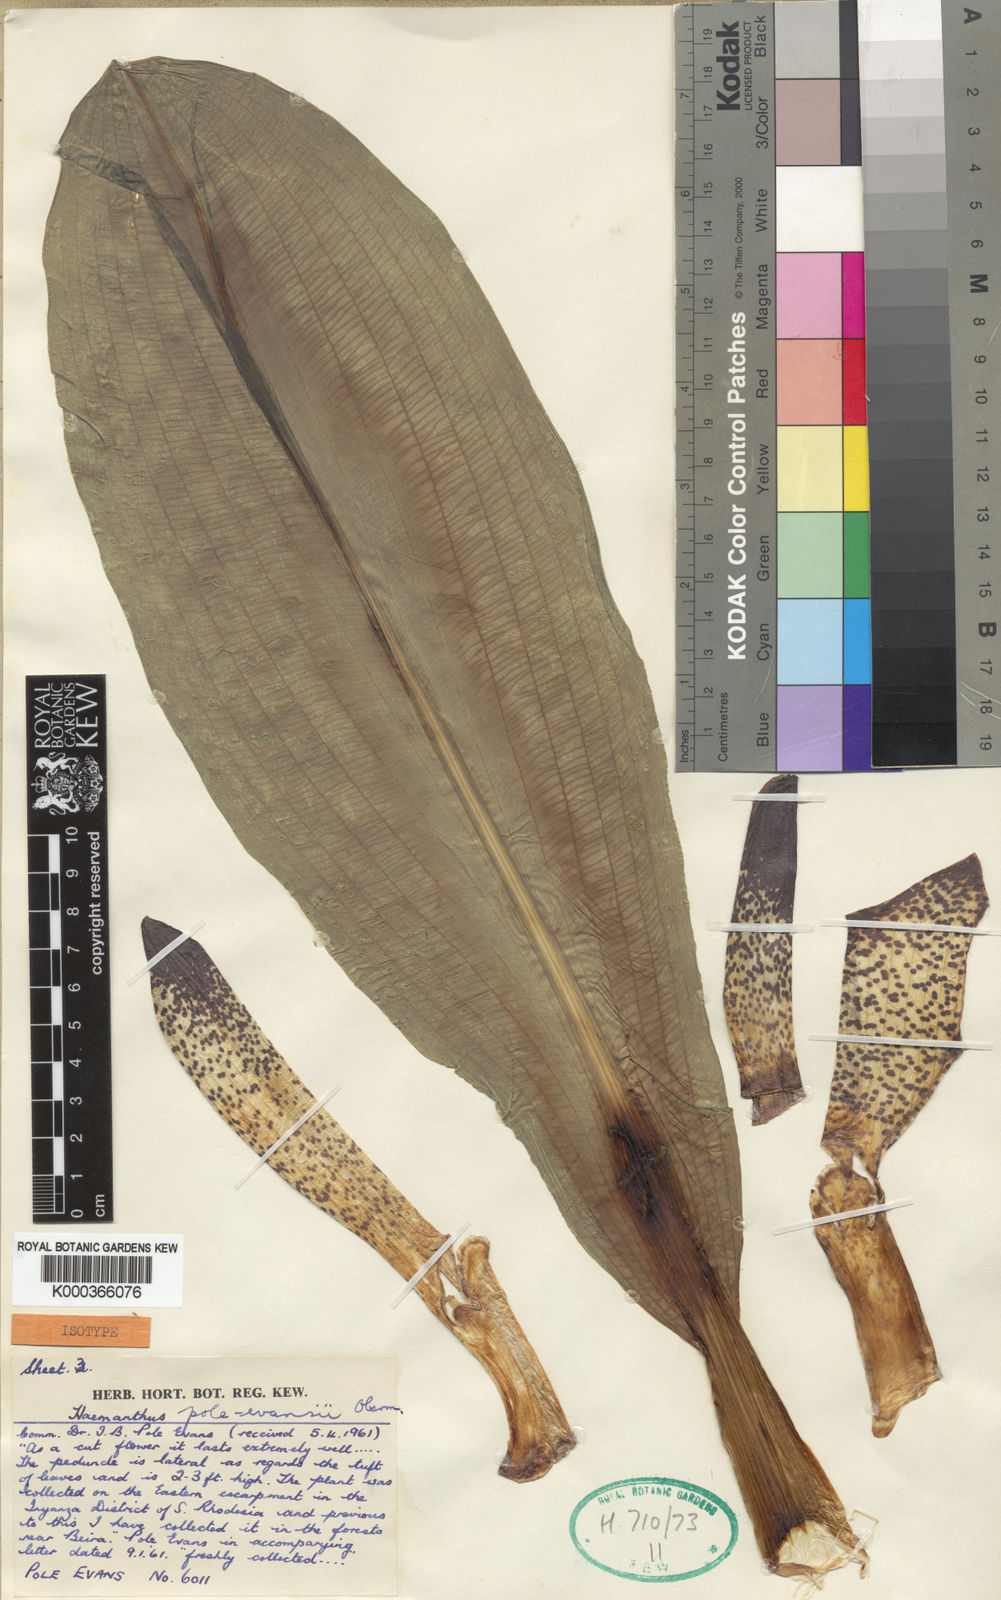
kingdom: Plantae
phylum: Tracheophyta
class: Liliopsida
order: Asparagales
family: Amaryllidaceae
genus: Scadoxus
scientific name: Scadoxus pole-evansii
